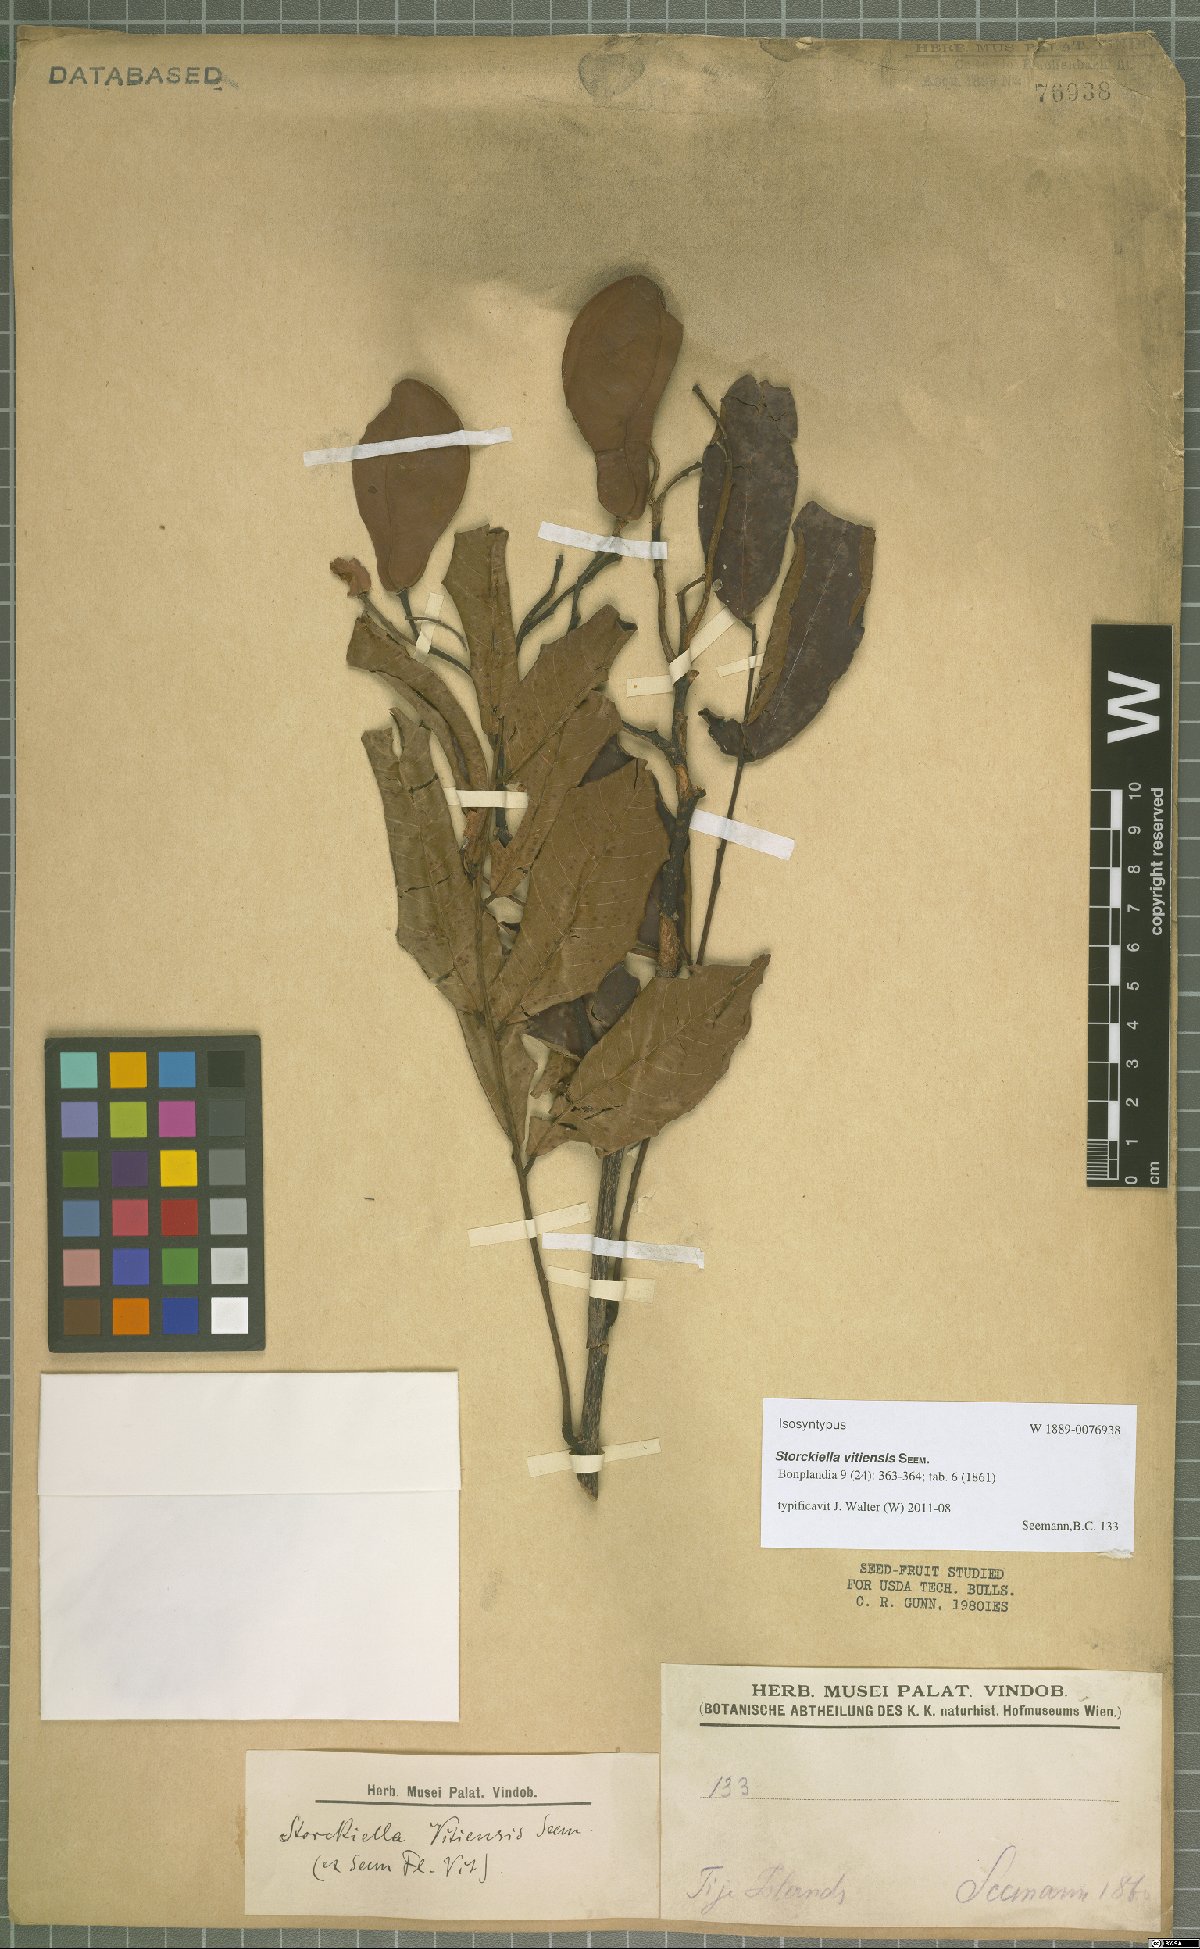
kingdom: Plantae
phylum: Tracheophyta
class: Magnoliopsida
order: Fabales
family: Fabaceae
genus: Storckiella
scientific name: Storckiella vitiensis
